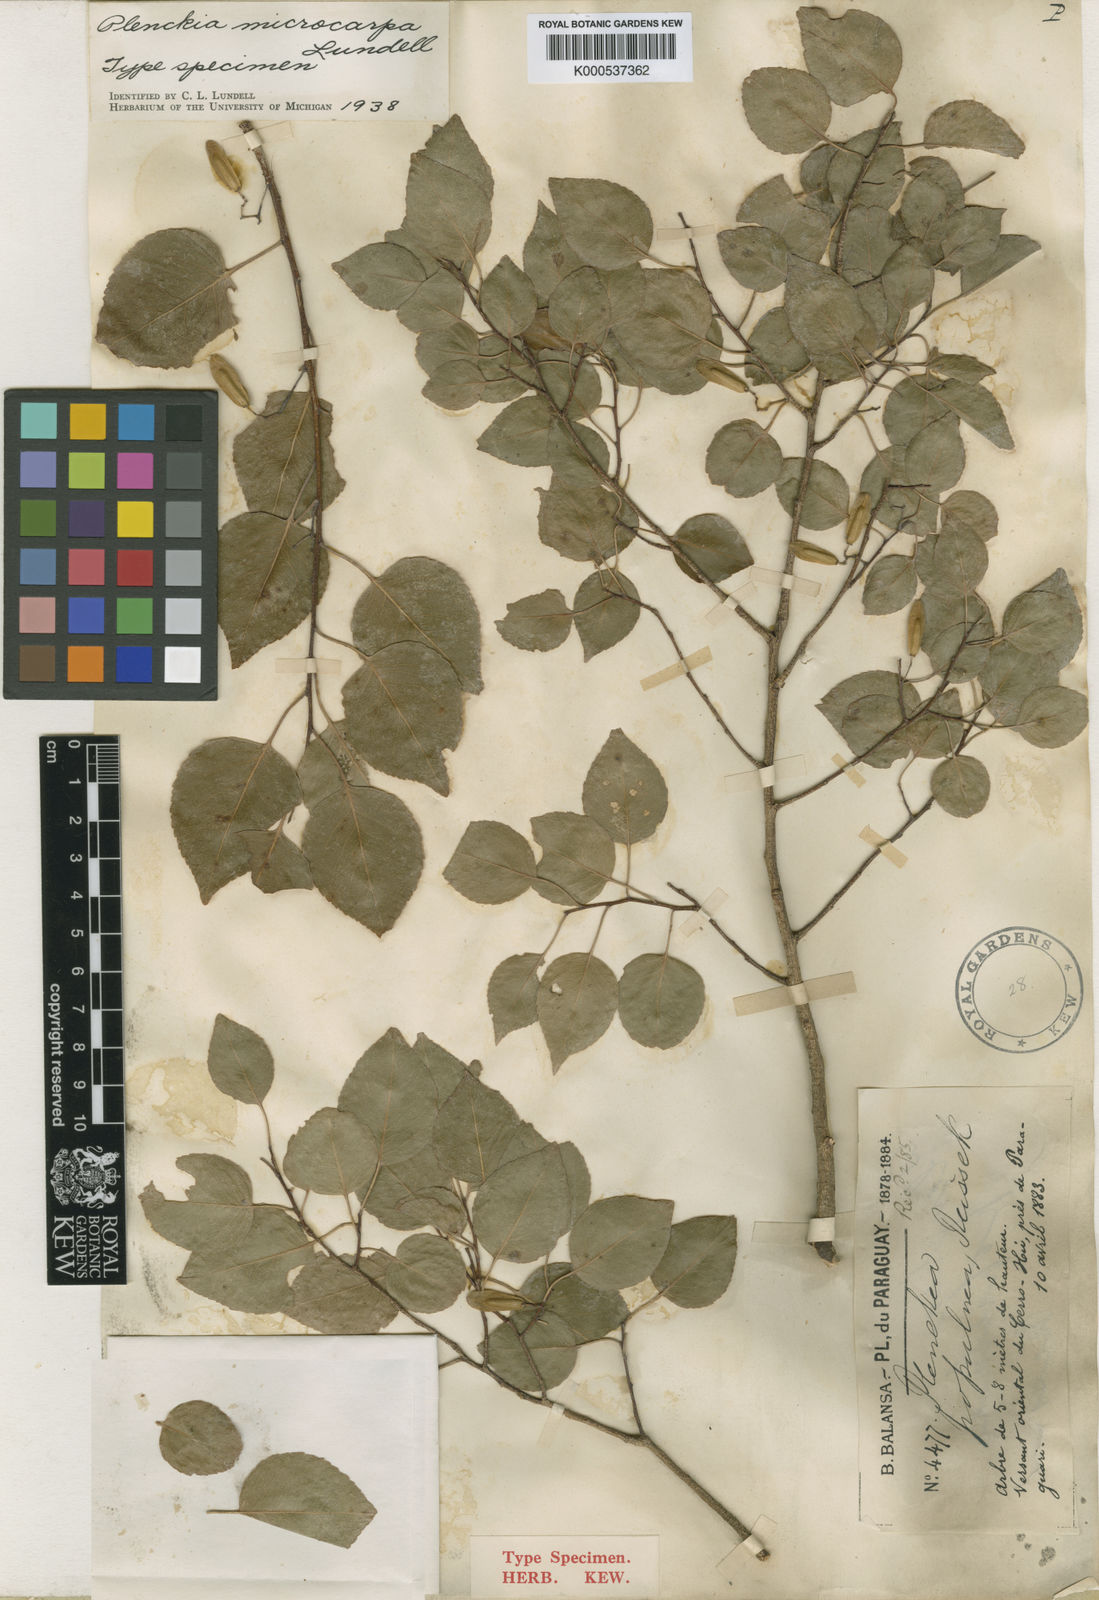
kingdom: Plantae
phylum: Tracheophyta
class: Magnoliopsida
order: Celastrales
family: Celastraceae
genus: Plenckia
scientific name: Plenckia microcarpa
